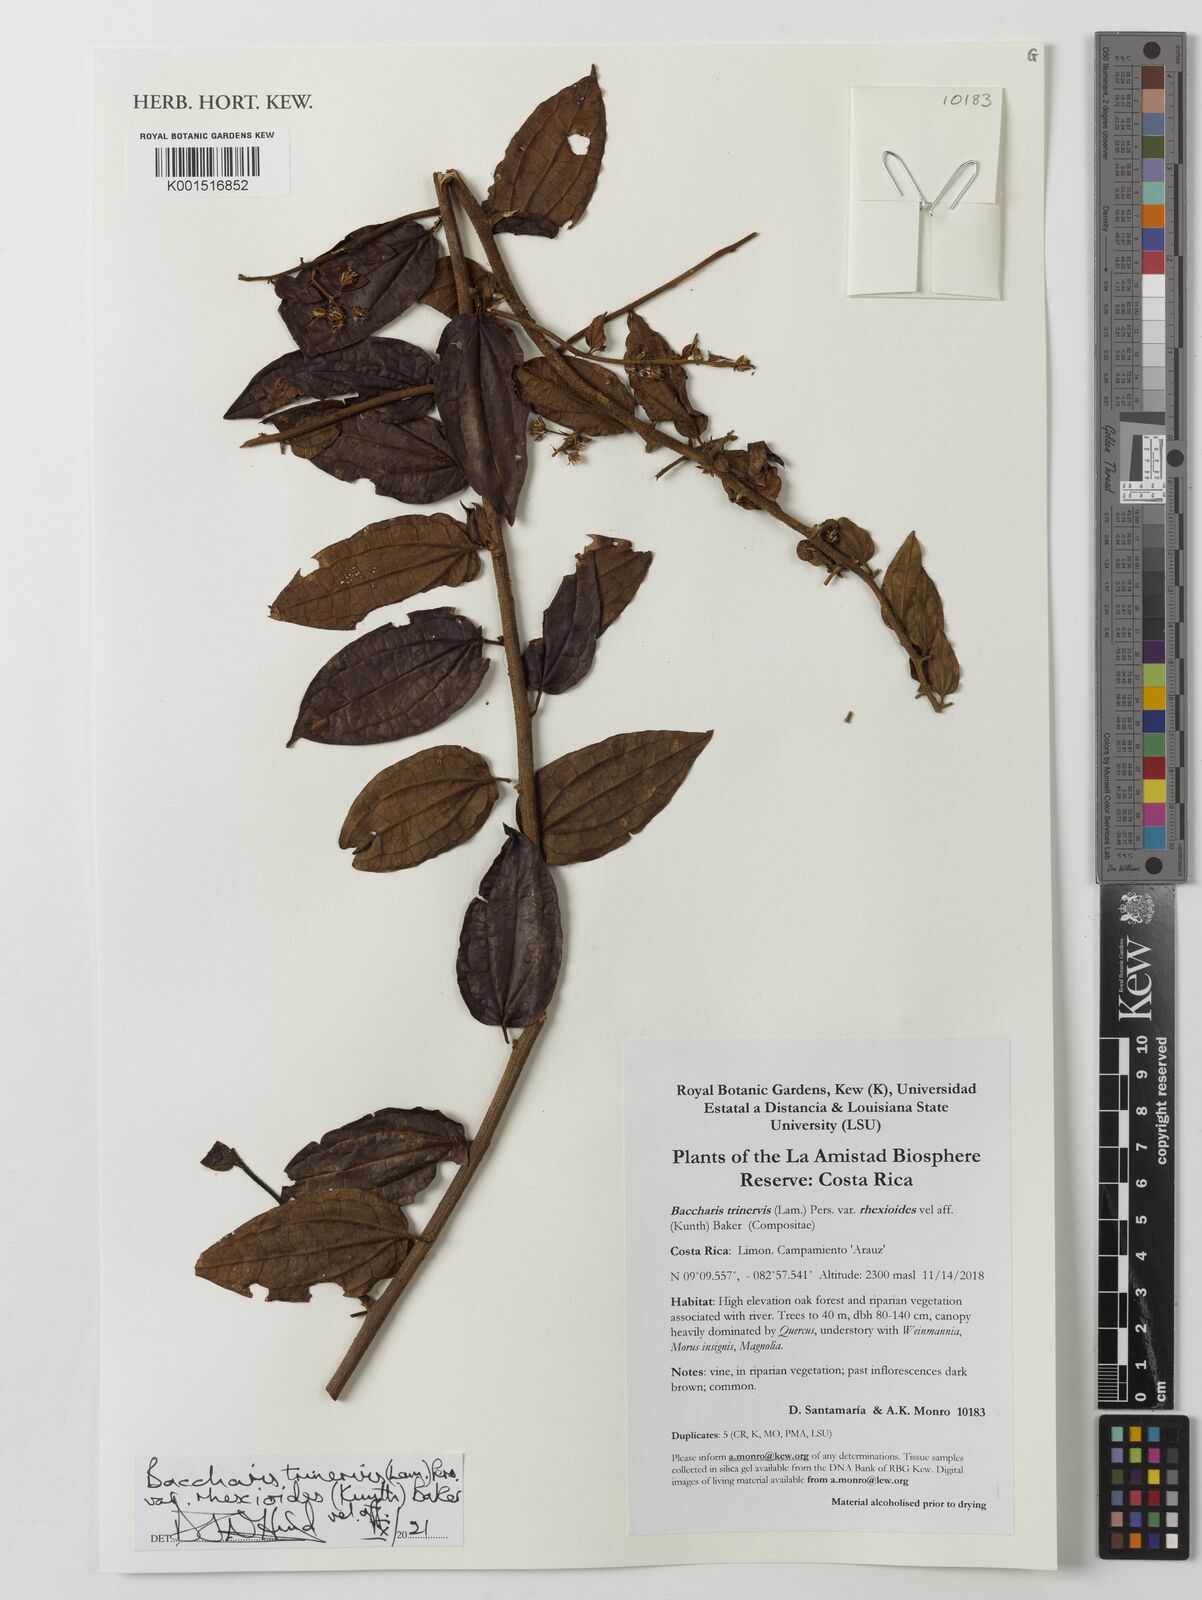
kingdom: Plantae
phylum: Tracheophyta
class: Magnoliopsida
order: Asterales
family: Asteraceae
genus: Baccharis
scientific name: Baccharis trinervis
